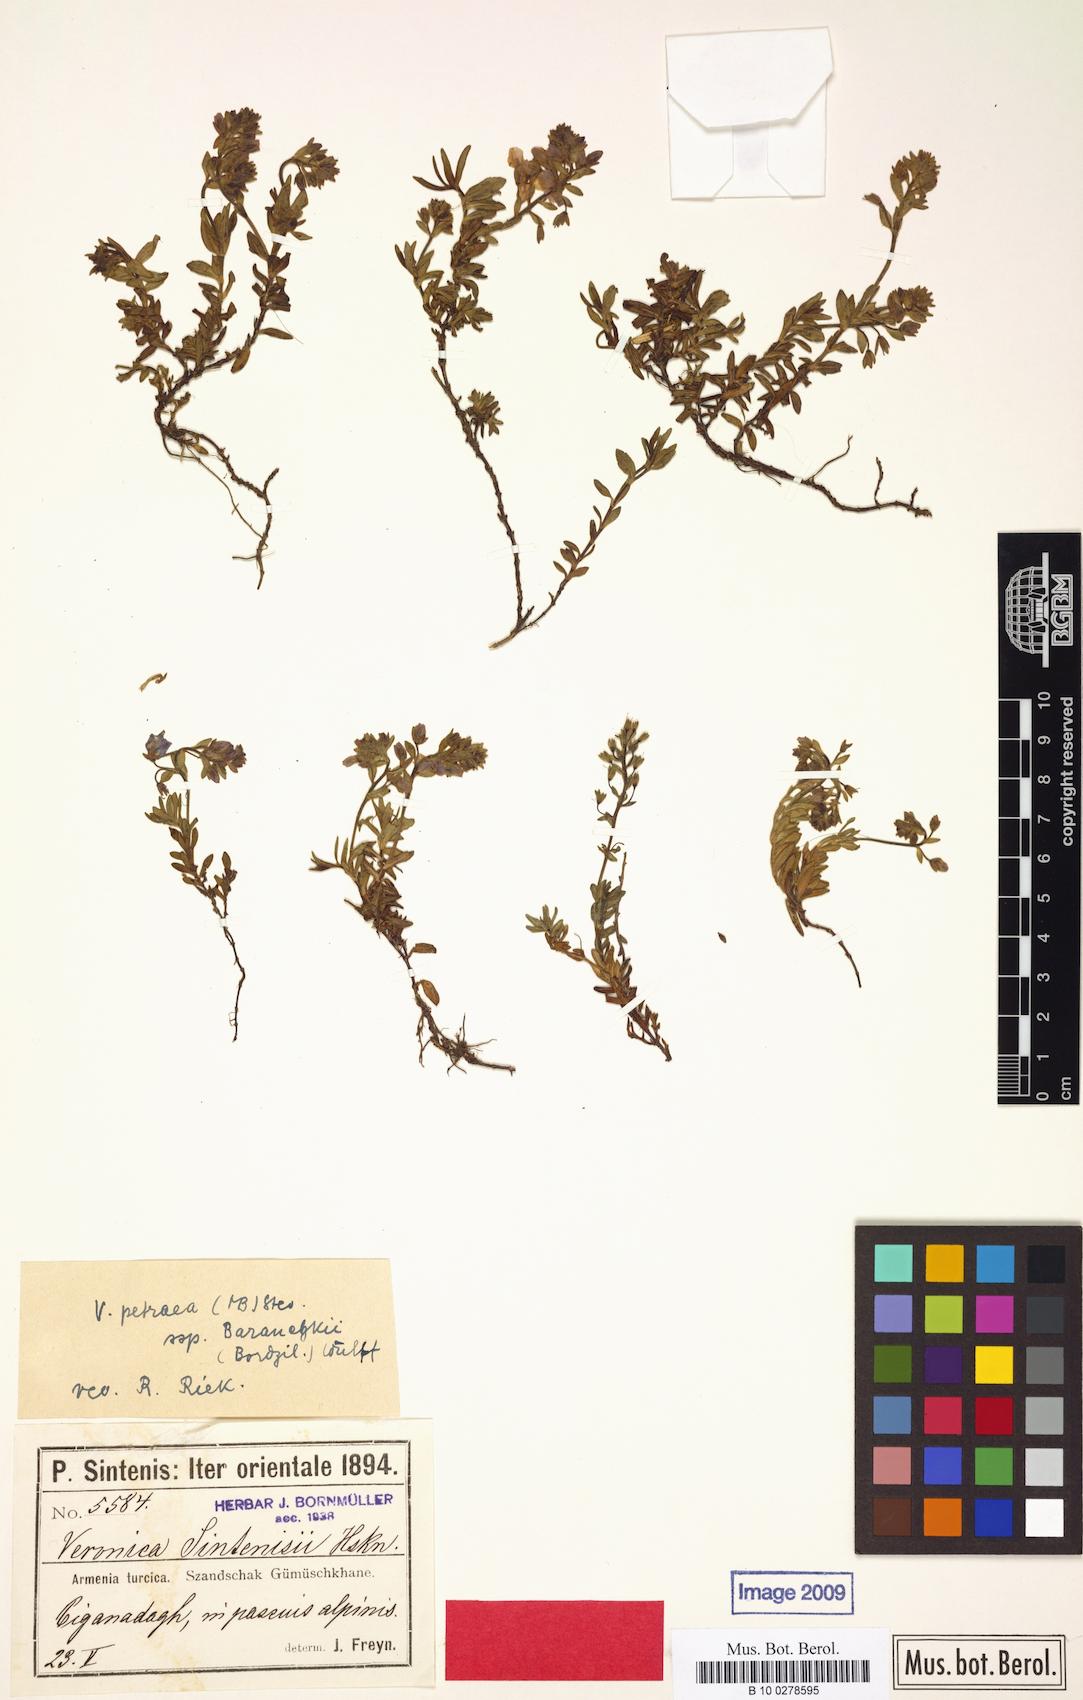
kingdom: Plantae
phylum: Tracheophyta
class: Magnoliopsida
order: Lamiales
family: Plantaginaceae
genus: Veronica
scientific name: Veronica denudata
